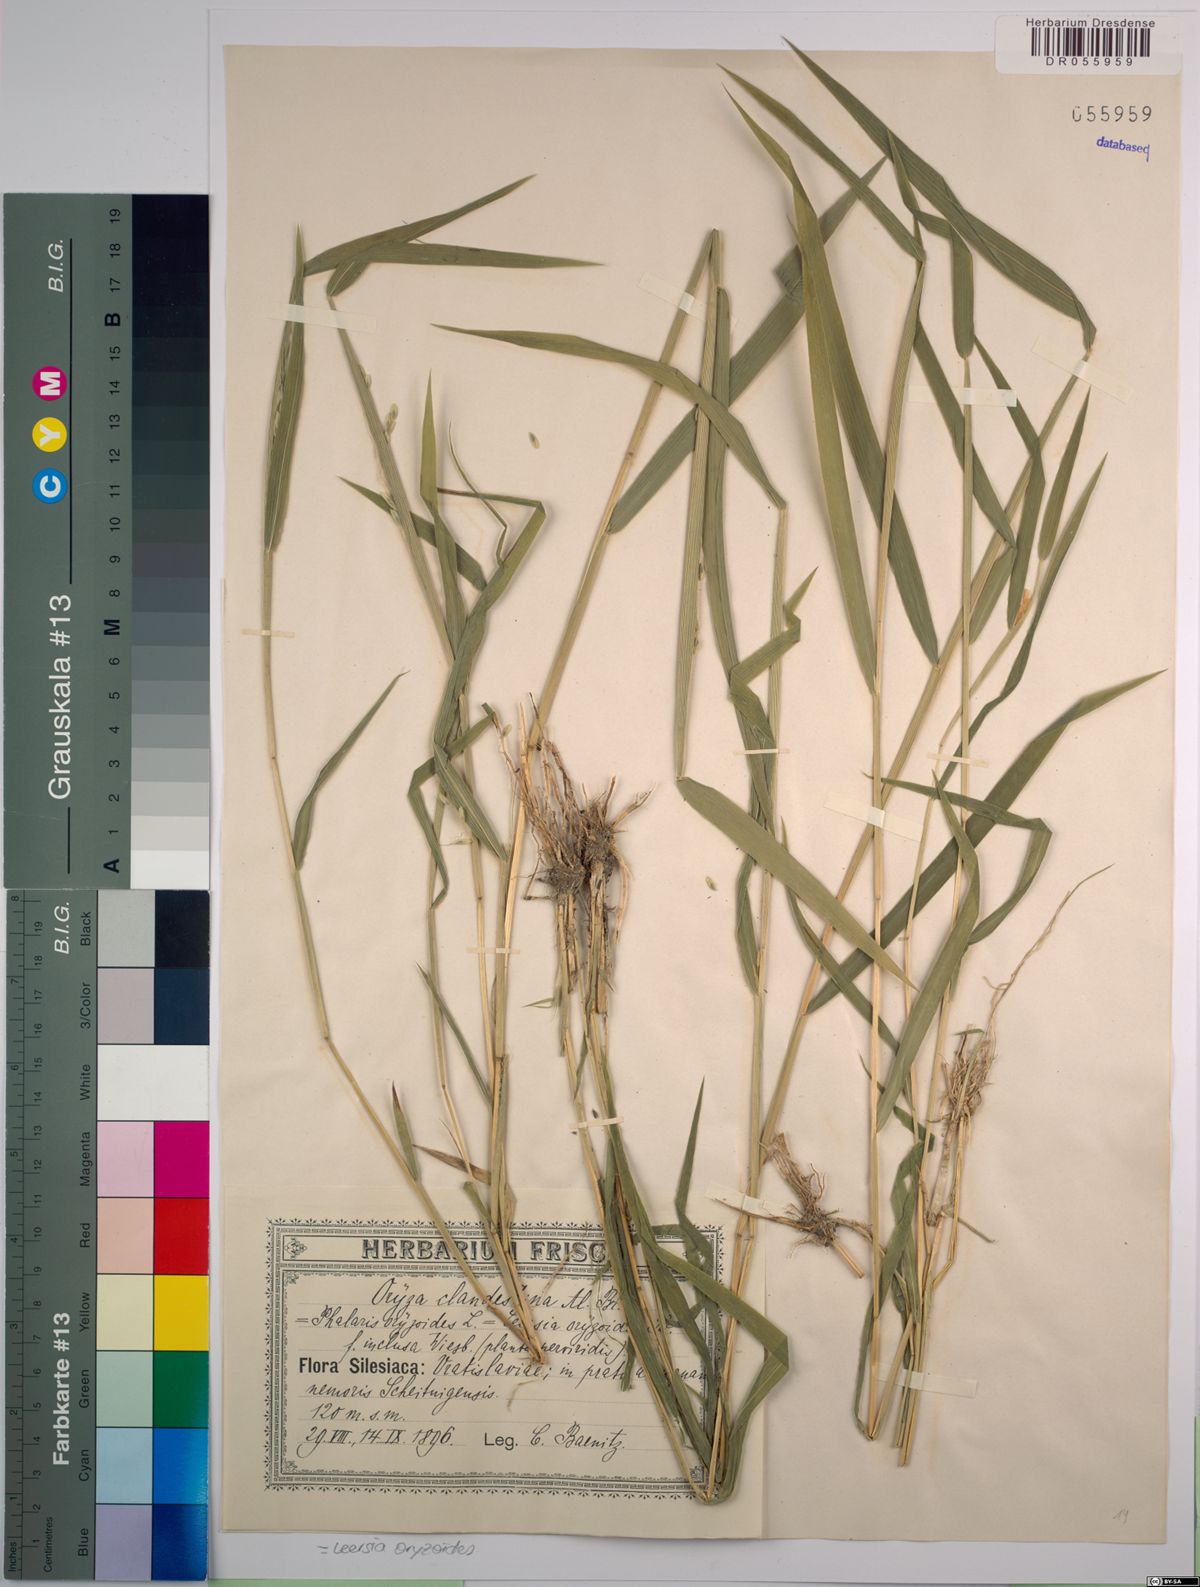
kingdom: Plantae
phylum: Tracheophyta
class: Liliopsida
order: Poales
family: Poaceae
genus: Leersia
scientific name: Leersia oryzoides
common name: Cut-grass
